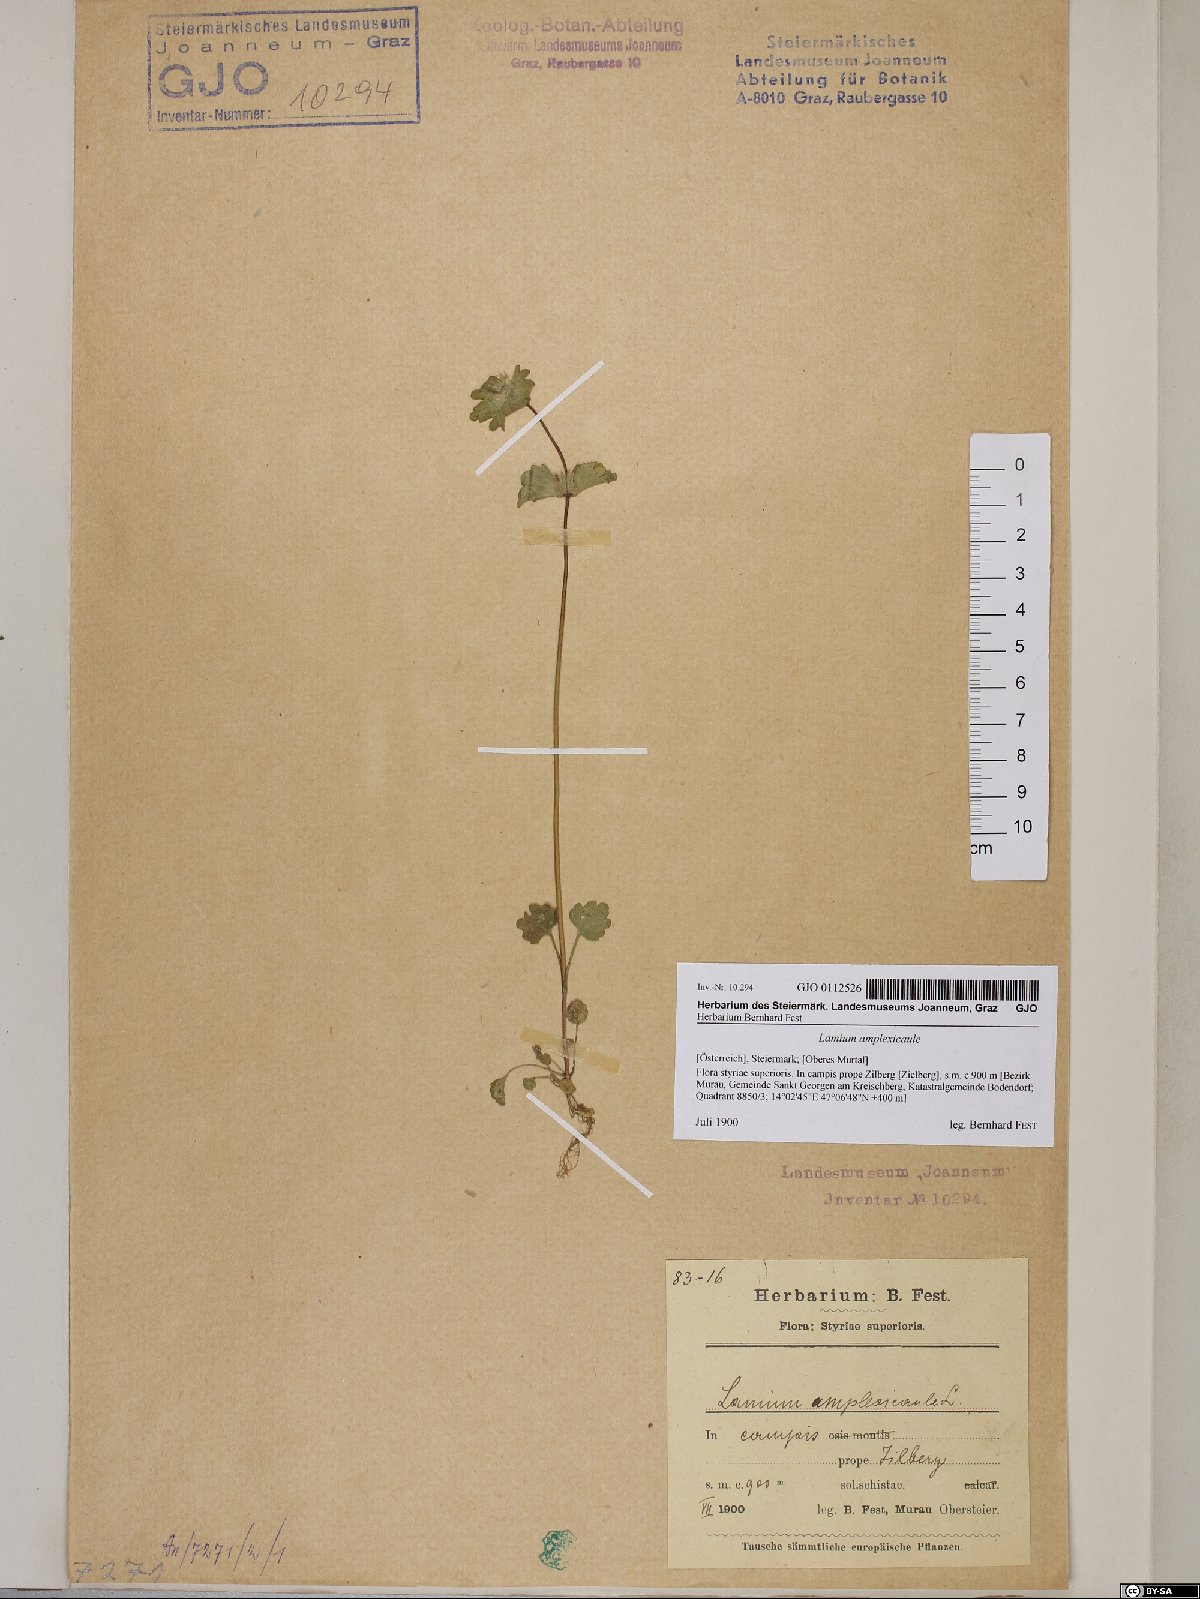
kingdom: Plantae
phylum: Tracheophyta
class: Magnoliopsida
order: Lamiales
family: Lamiaceae
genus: Lamium
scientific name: Lamium amplexicaule
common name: Henbit dead-nettle
